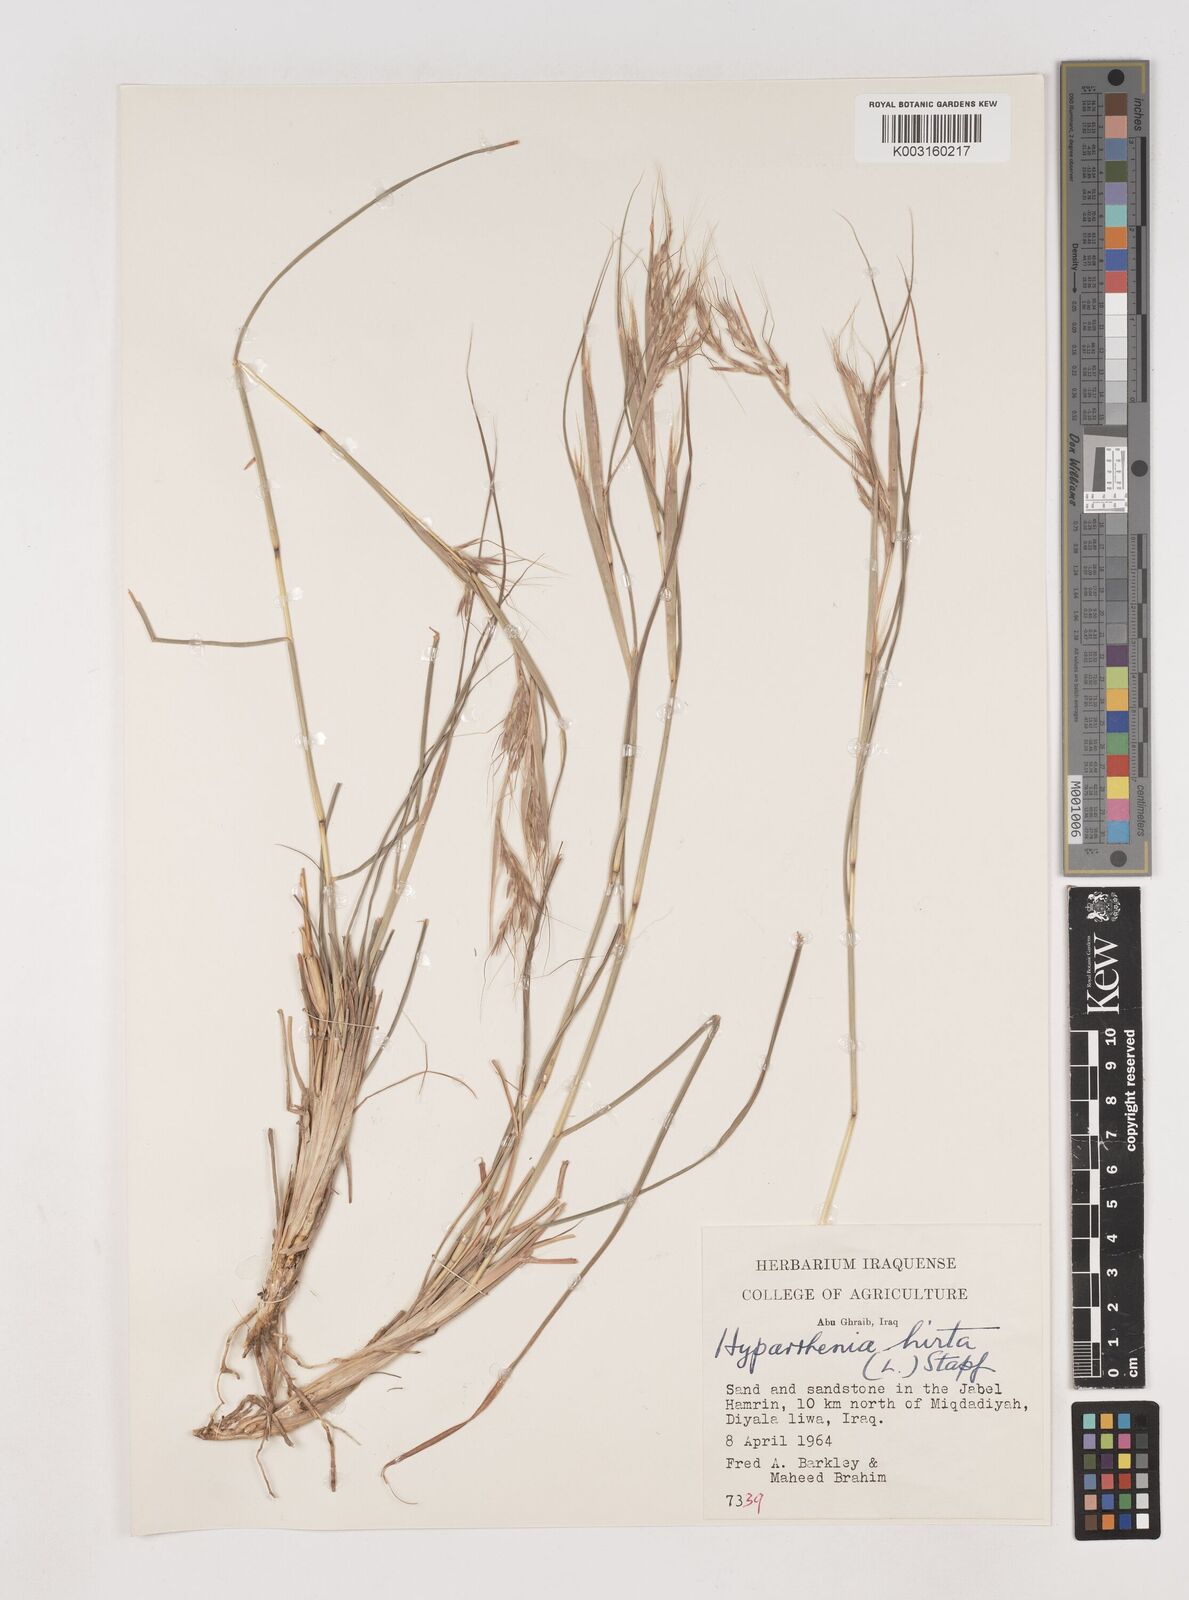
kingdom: Plantae
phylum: Tracheophyta
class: Liliopsida
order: Poales
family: Poaceae
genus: Hyparrhenia
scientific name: Hyparrhenia hirta
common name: Thatching grass
